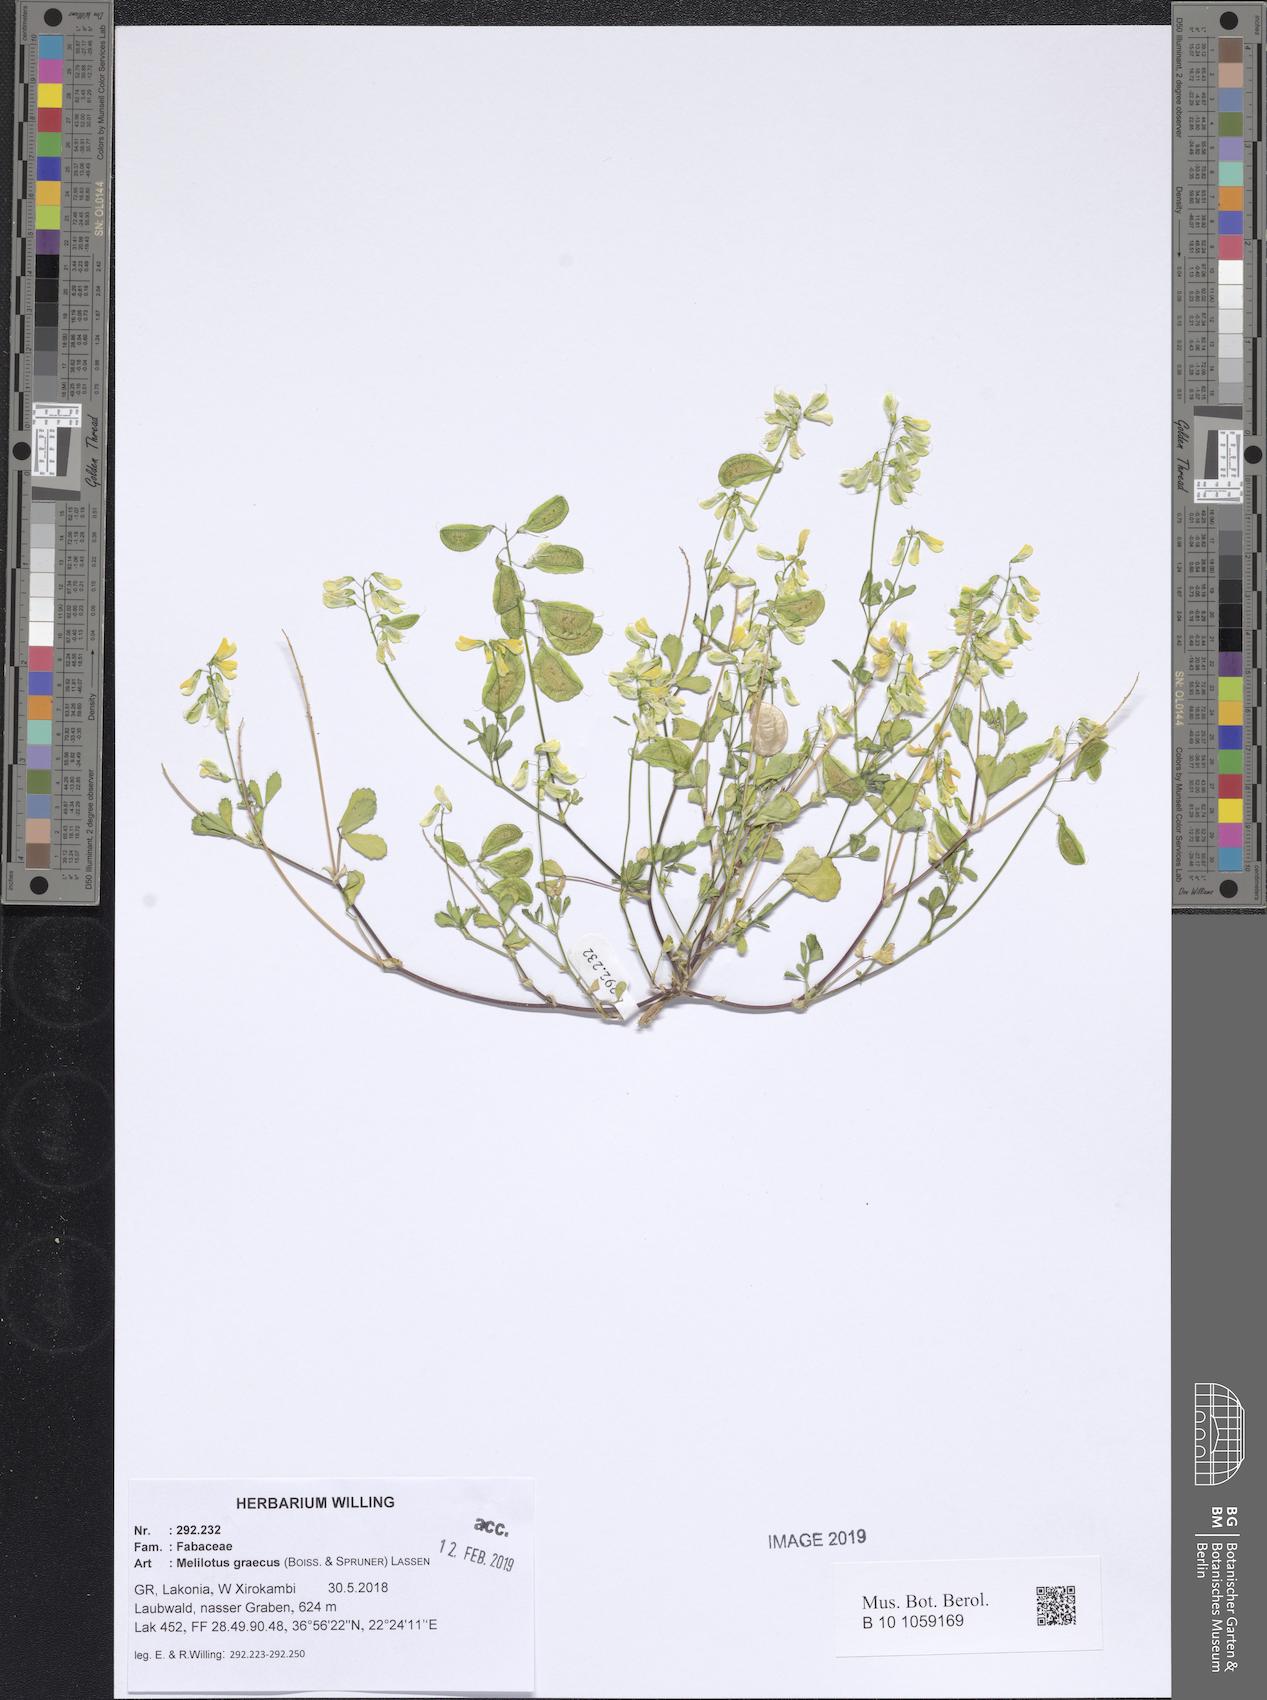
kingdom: Plantae
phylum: Tracheophyta
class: Magnoliopsida
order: Fabales
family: Fabaceae
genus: Trigonella
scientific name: Trigonella graeca
